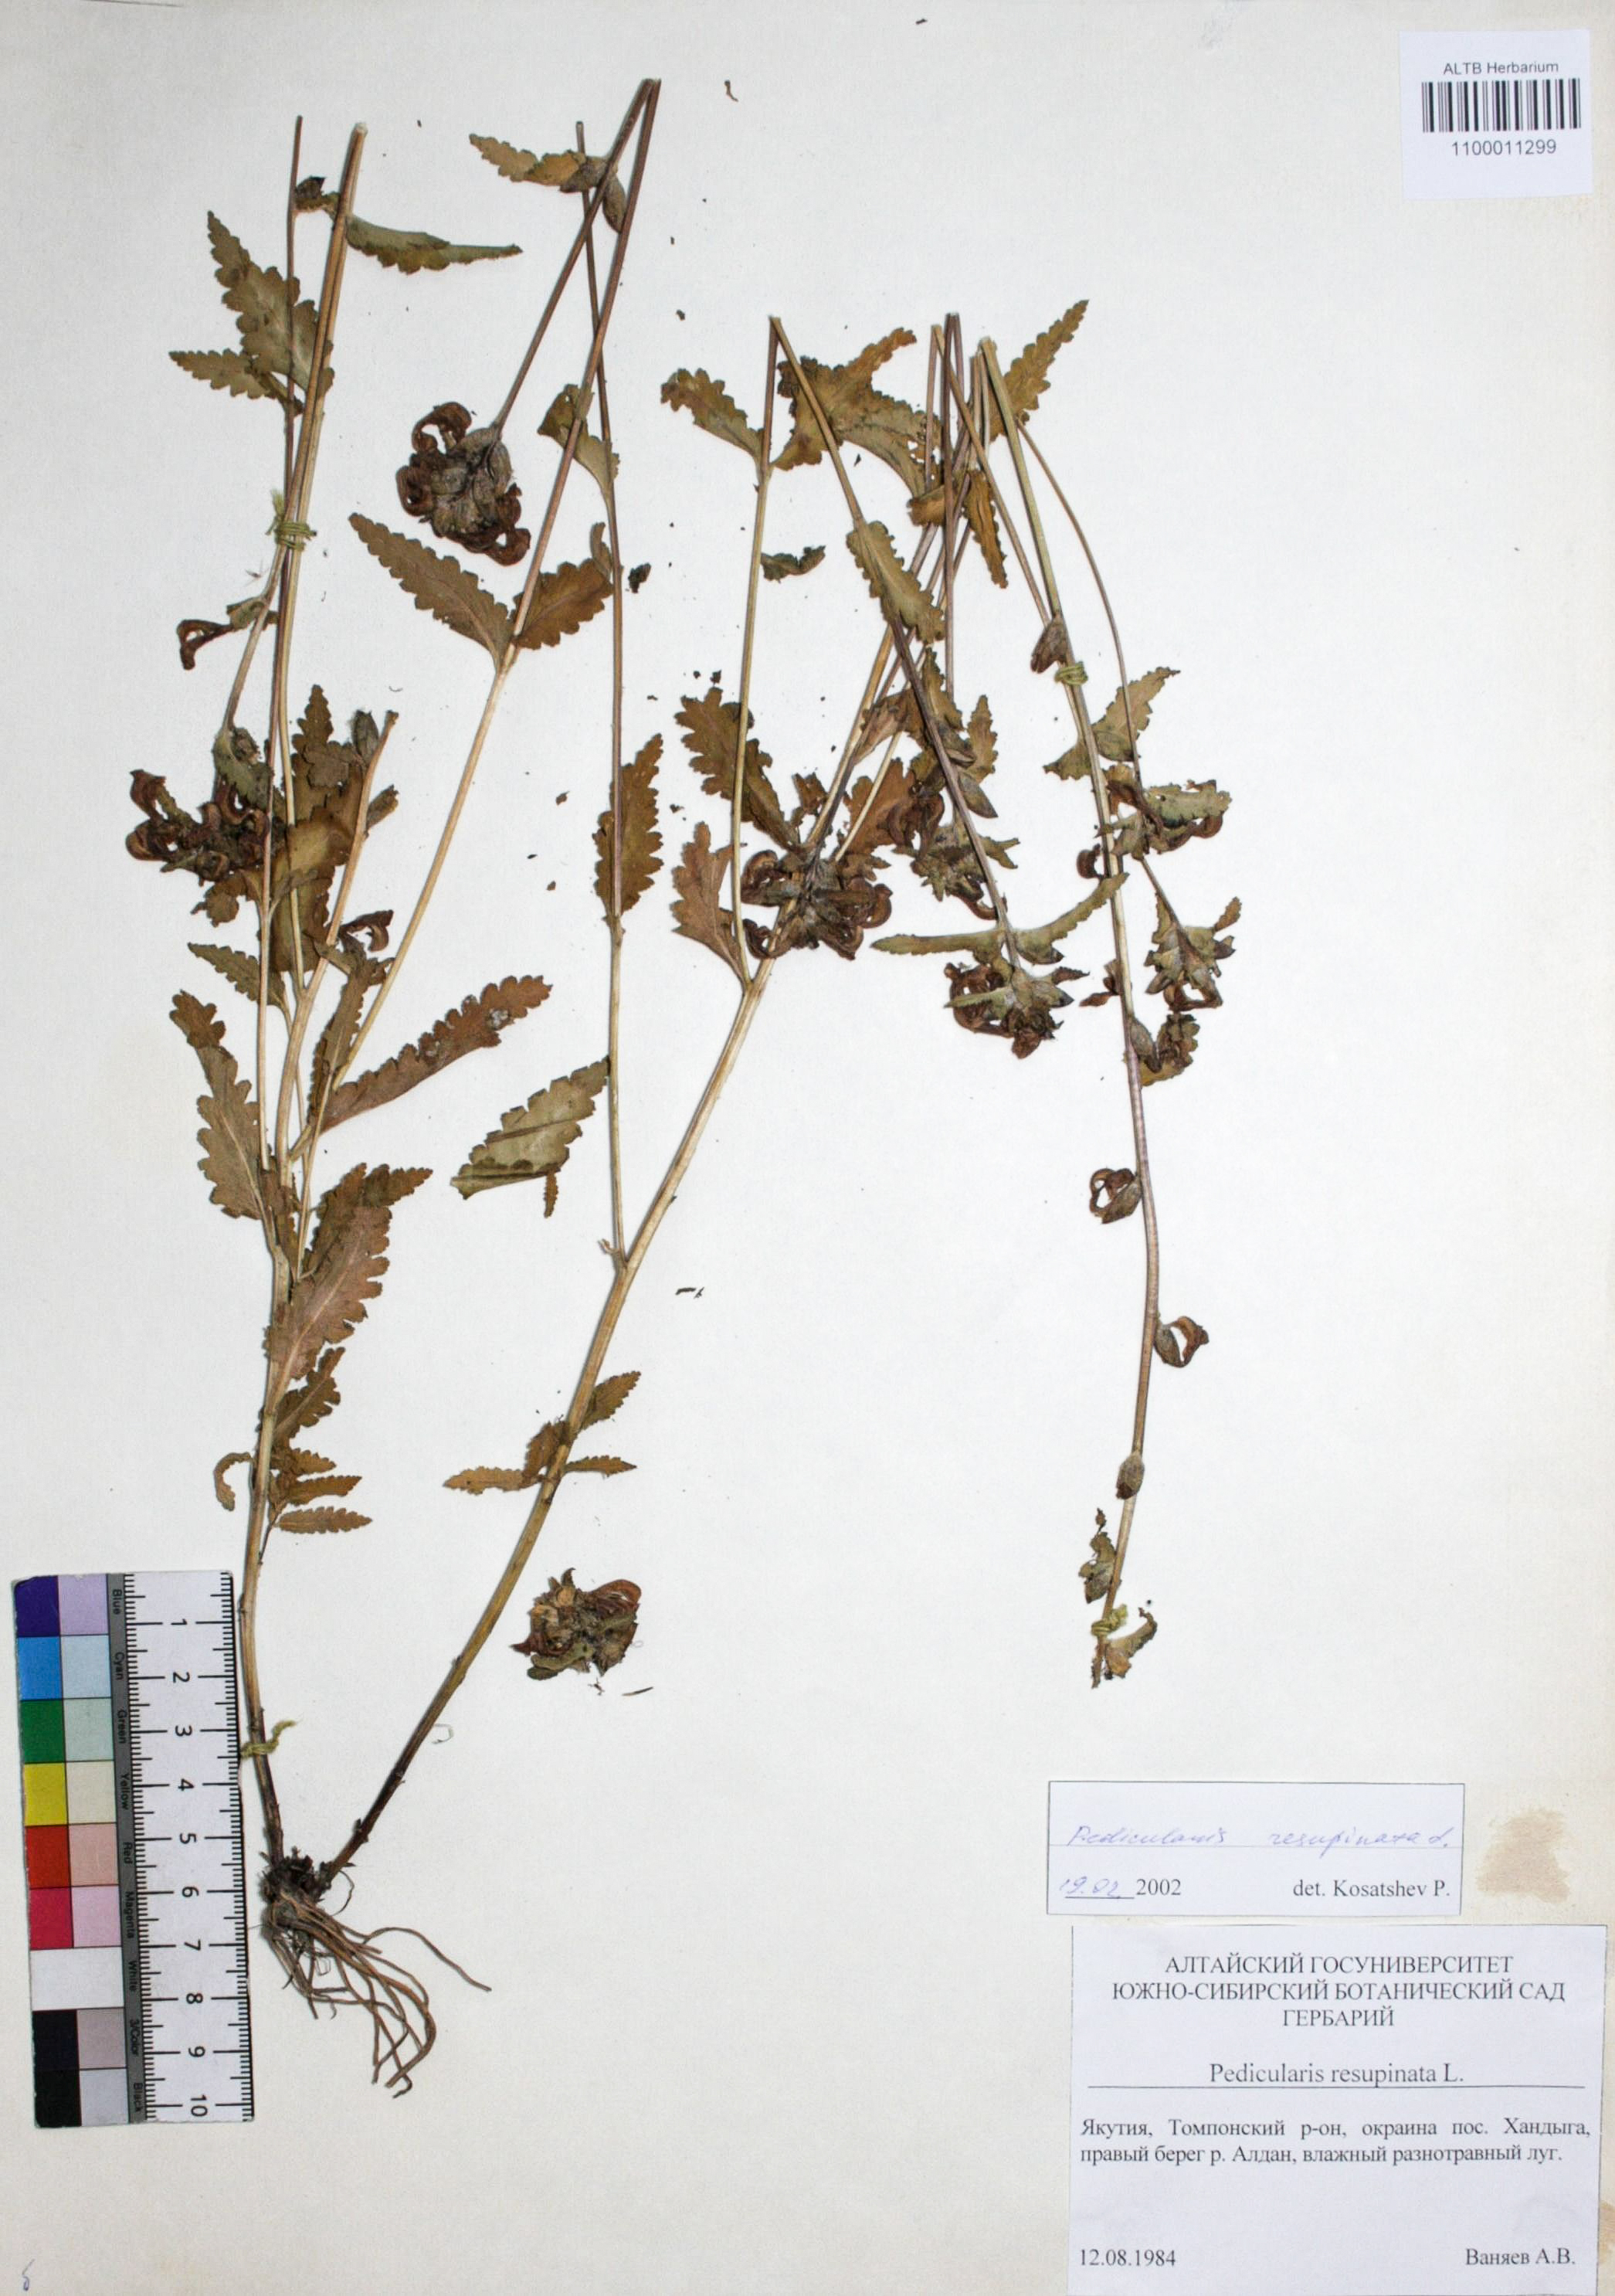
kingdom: Plantae
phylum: Tracheophyta
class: Magnoliopsida
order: Lamiales
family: Orobanchaceae
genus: Pedicularis
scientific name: Pedicularis resupinata
